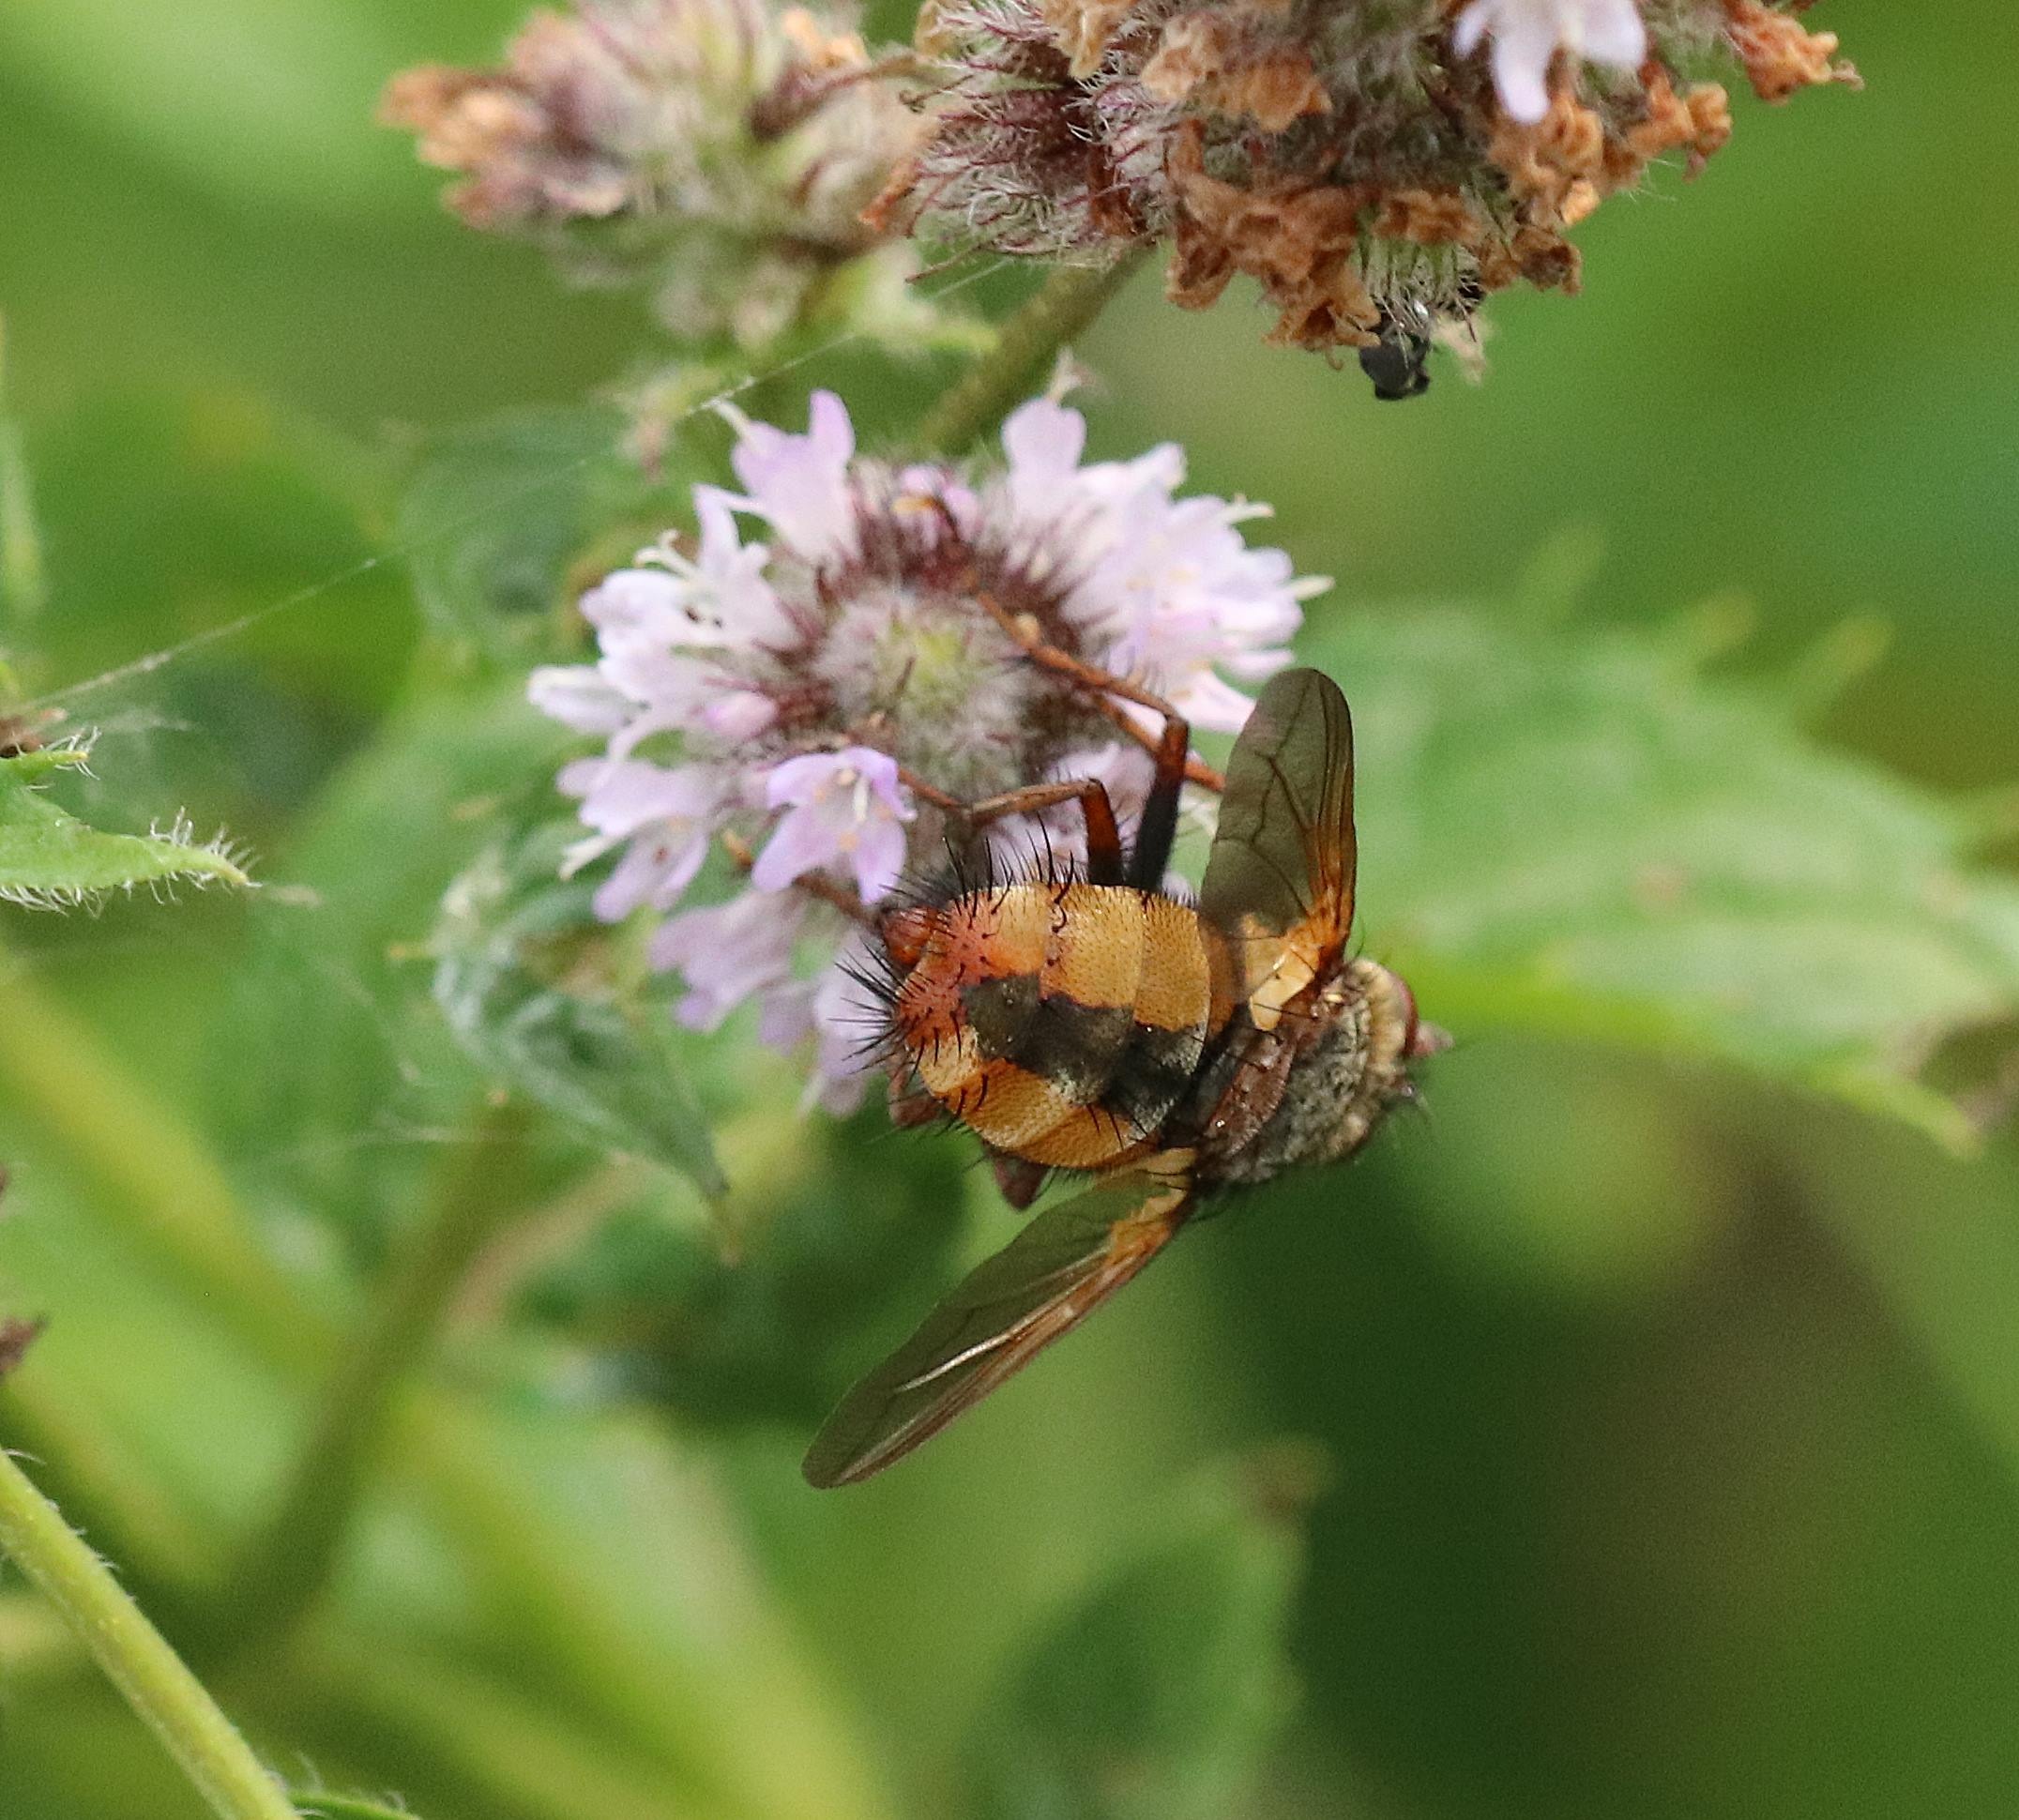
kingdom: Animalia
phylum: Arthropoda
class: Insecta
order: Diptera
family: Tachinidae
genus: Tachina
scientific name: Tachina fera
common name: Mellemfluen oskar
